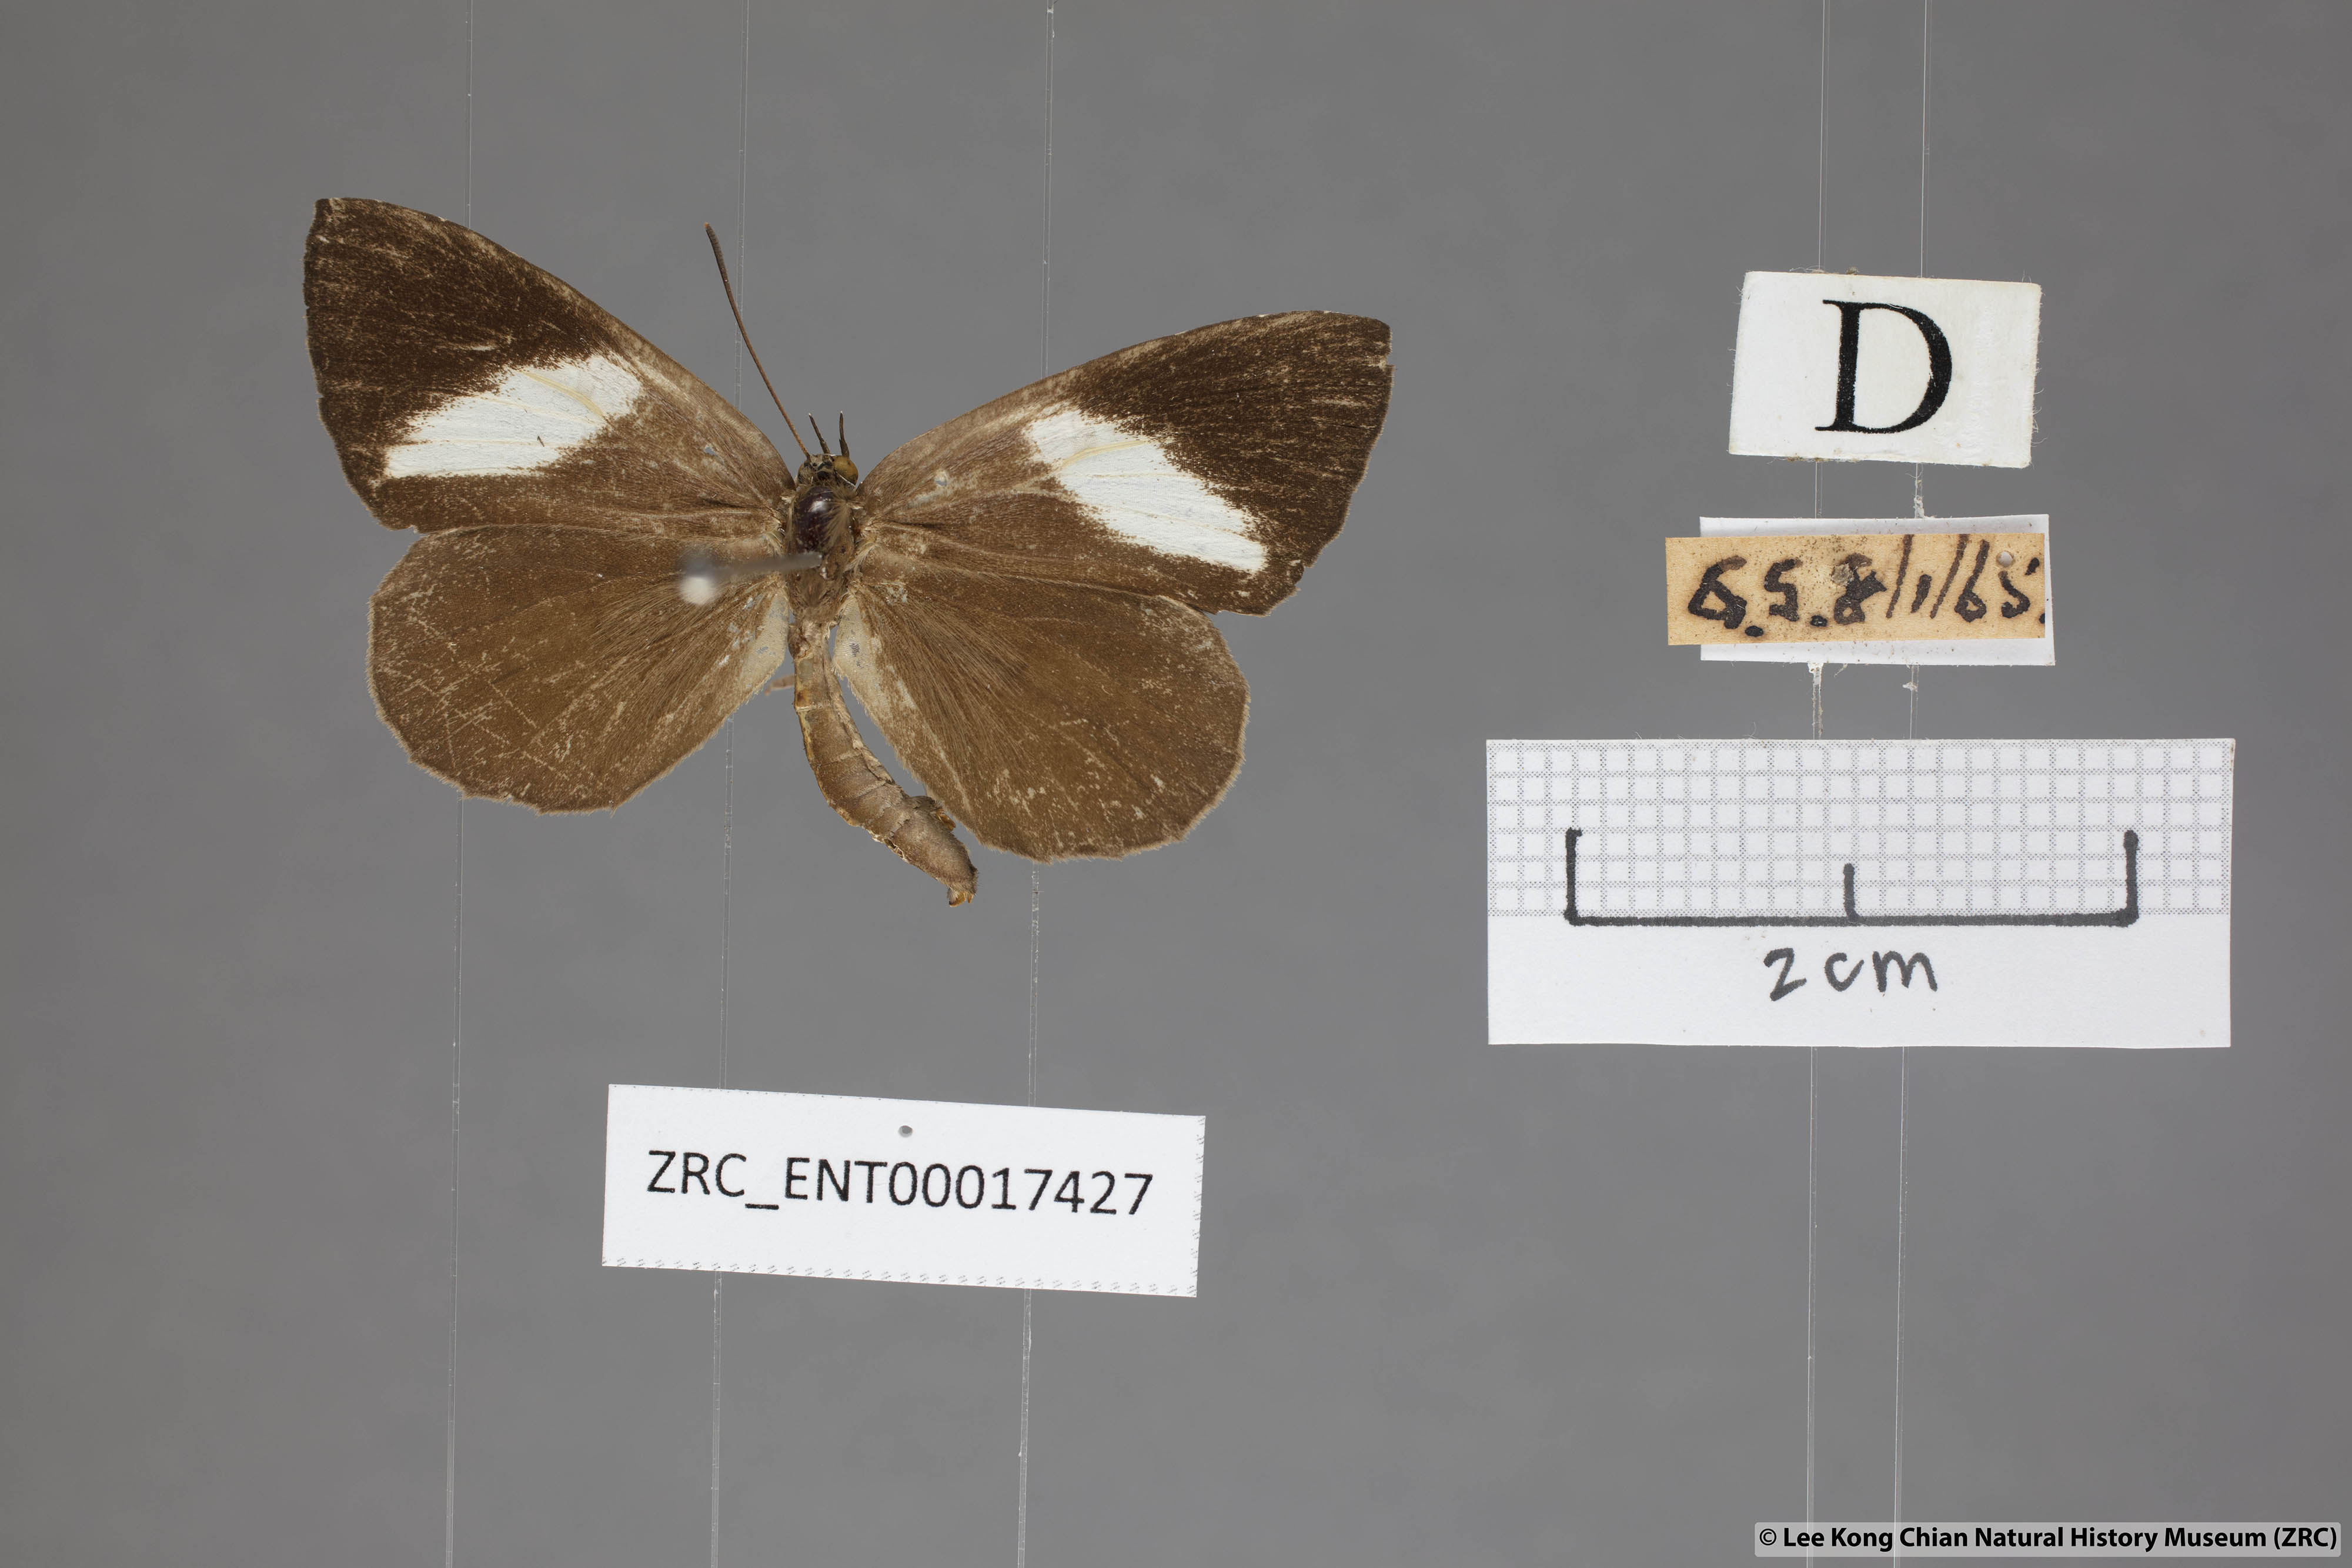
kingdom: Animalia
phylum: Arthropoda
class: Insecta
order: Lepidoptera
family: Lycaenidae
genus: Miletus
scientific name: Miletus biggsii
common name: Bigg's brownie
